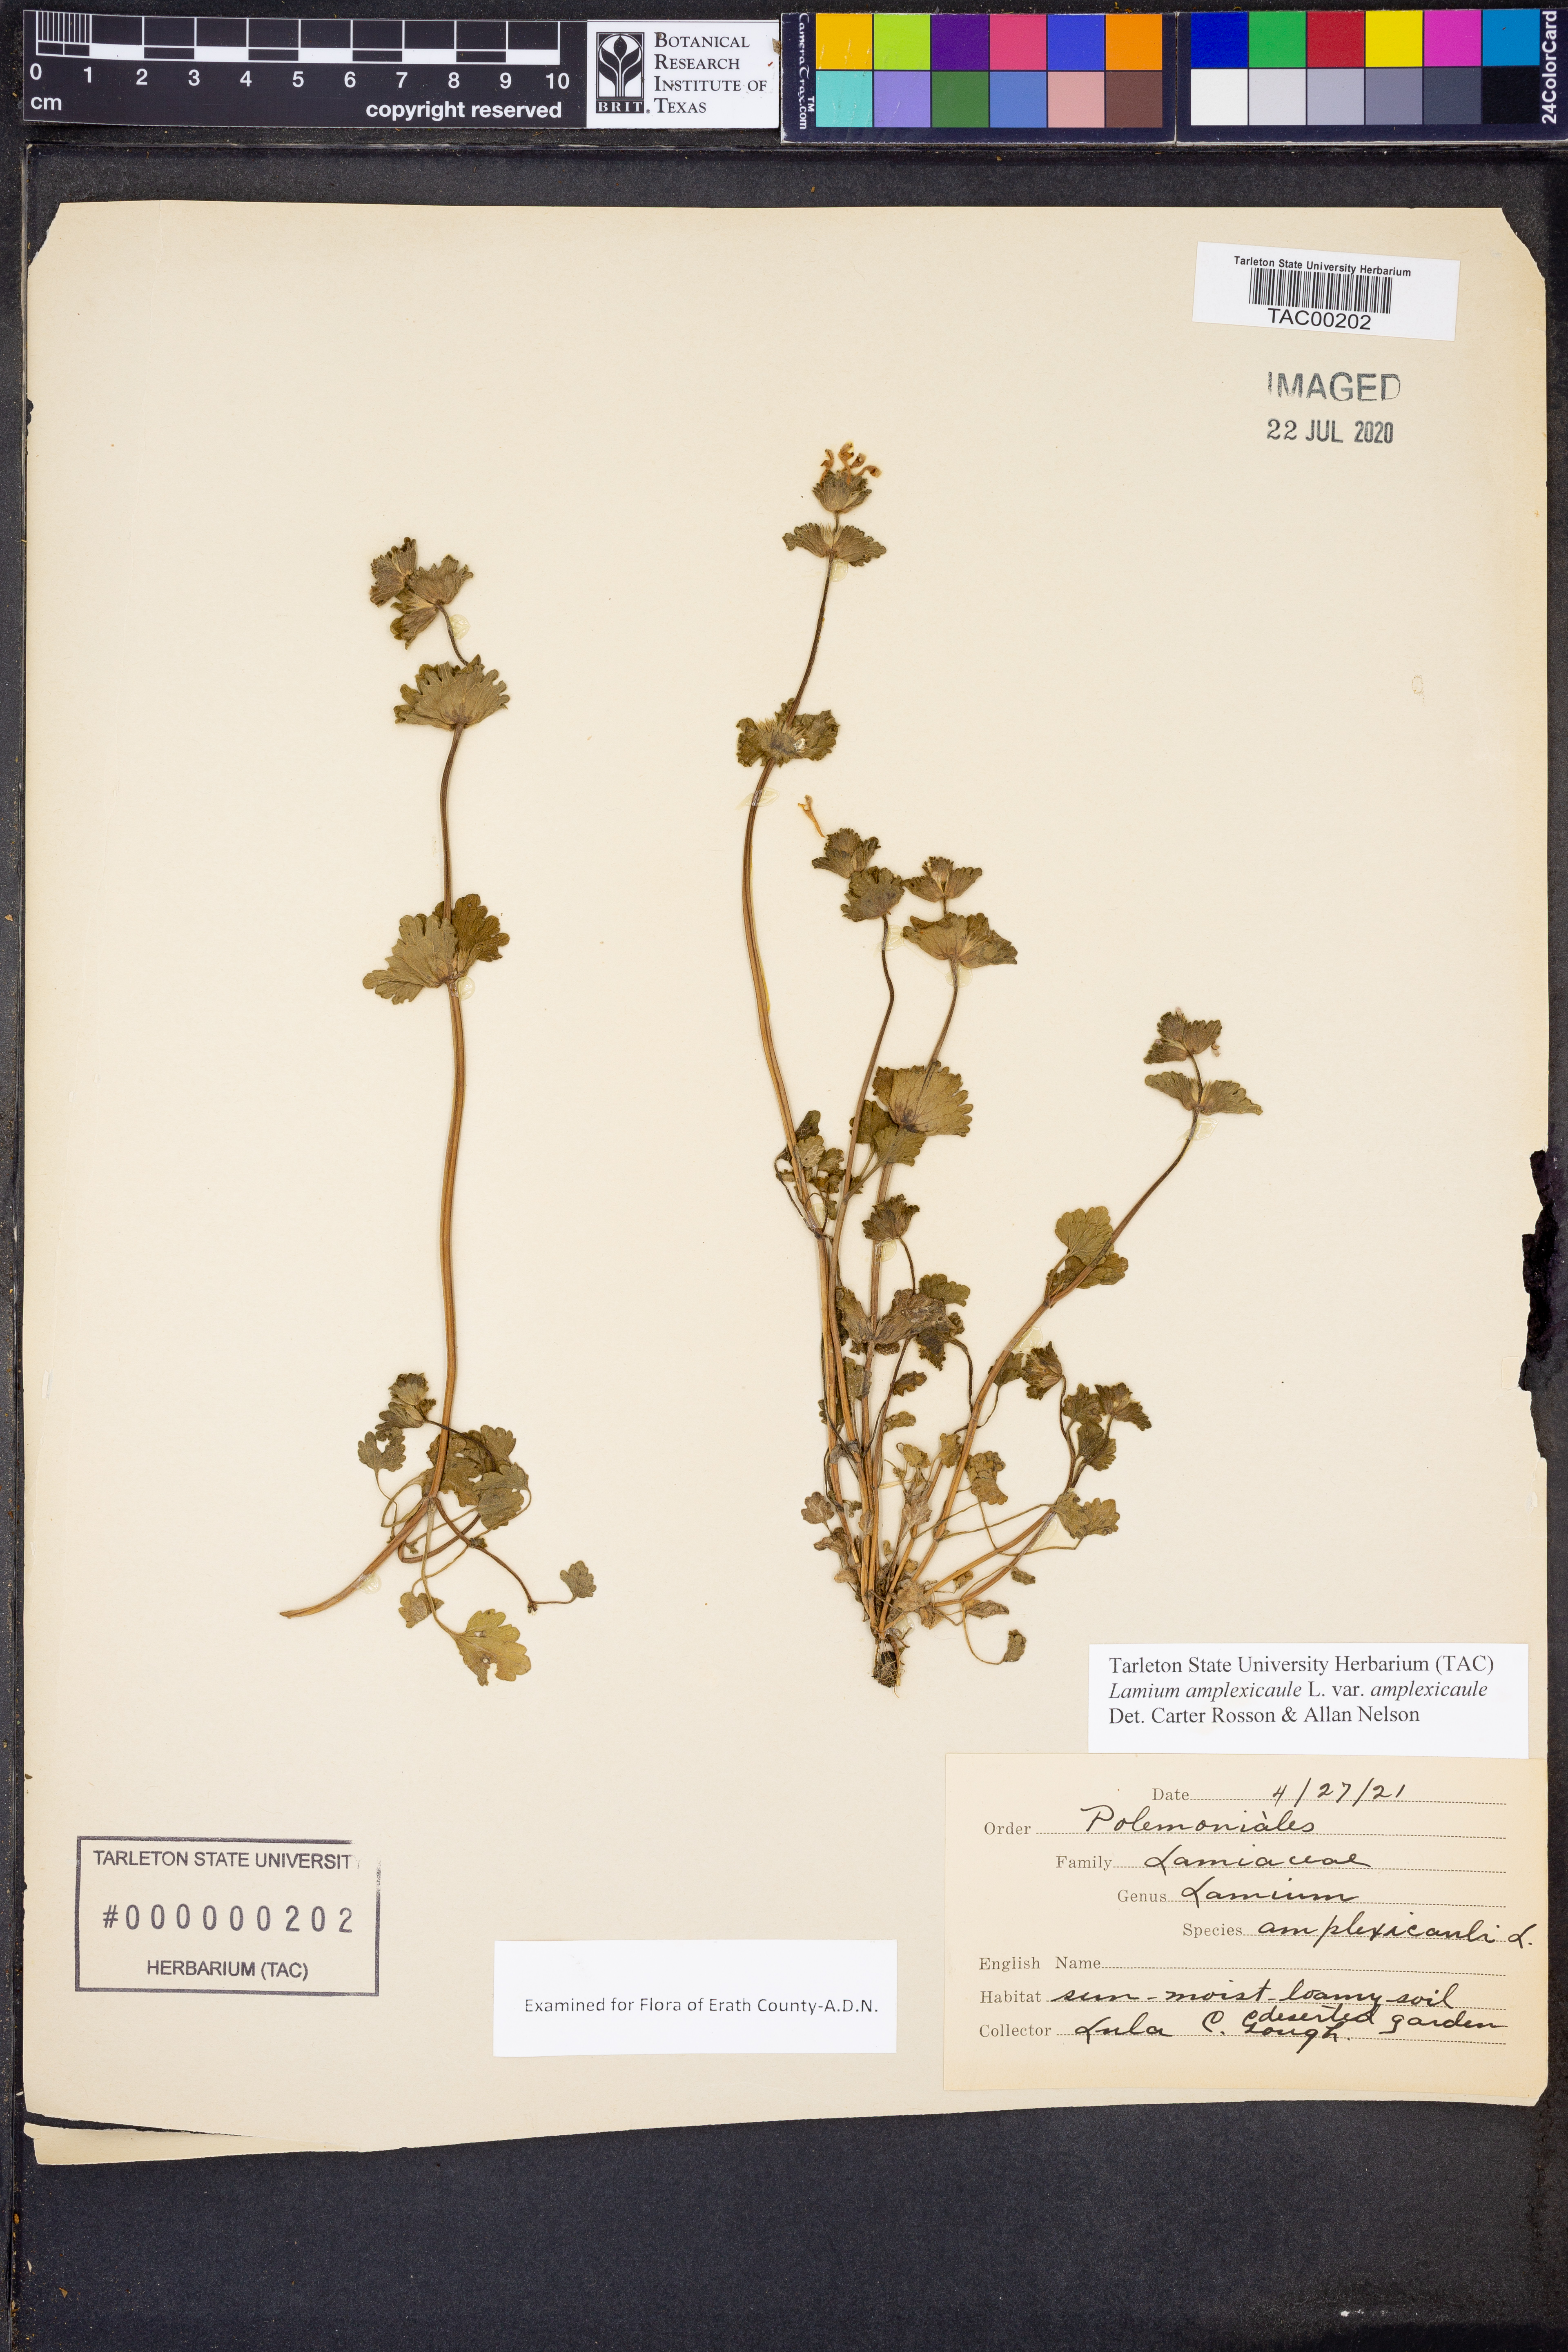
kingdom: Plantae
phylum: Tracheophyta
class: Magnoliopsida
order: Lamiales
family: Lamiaceae
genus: Lamium
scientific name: Lamium amplexicaule
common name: Henbit dead-nettle
